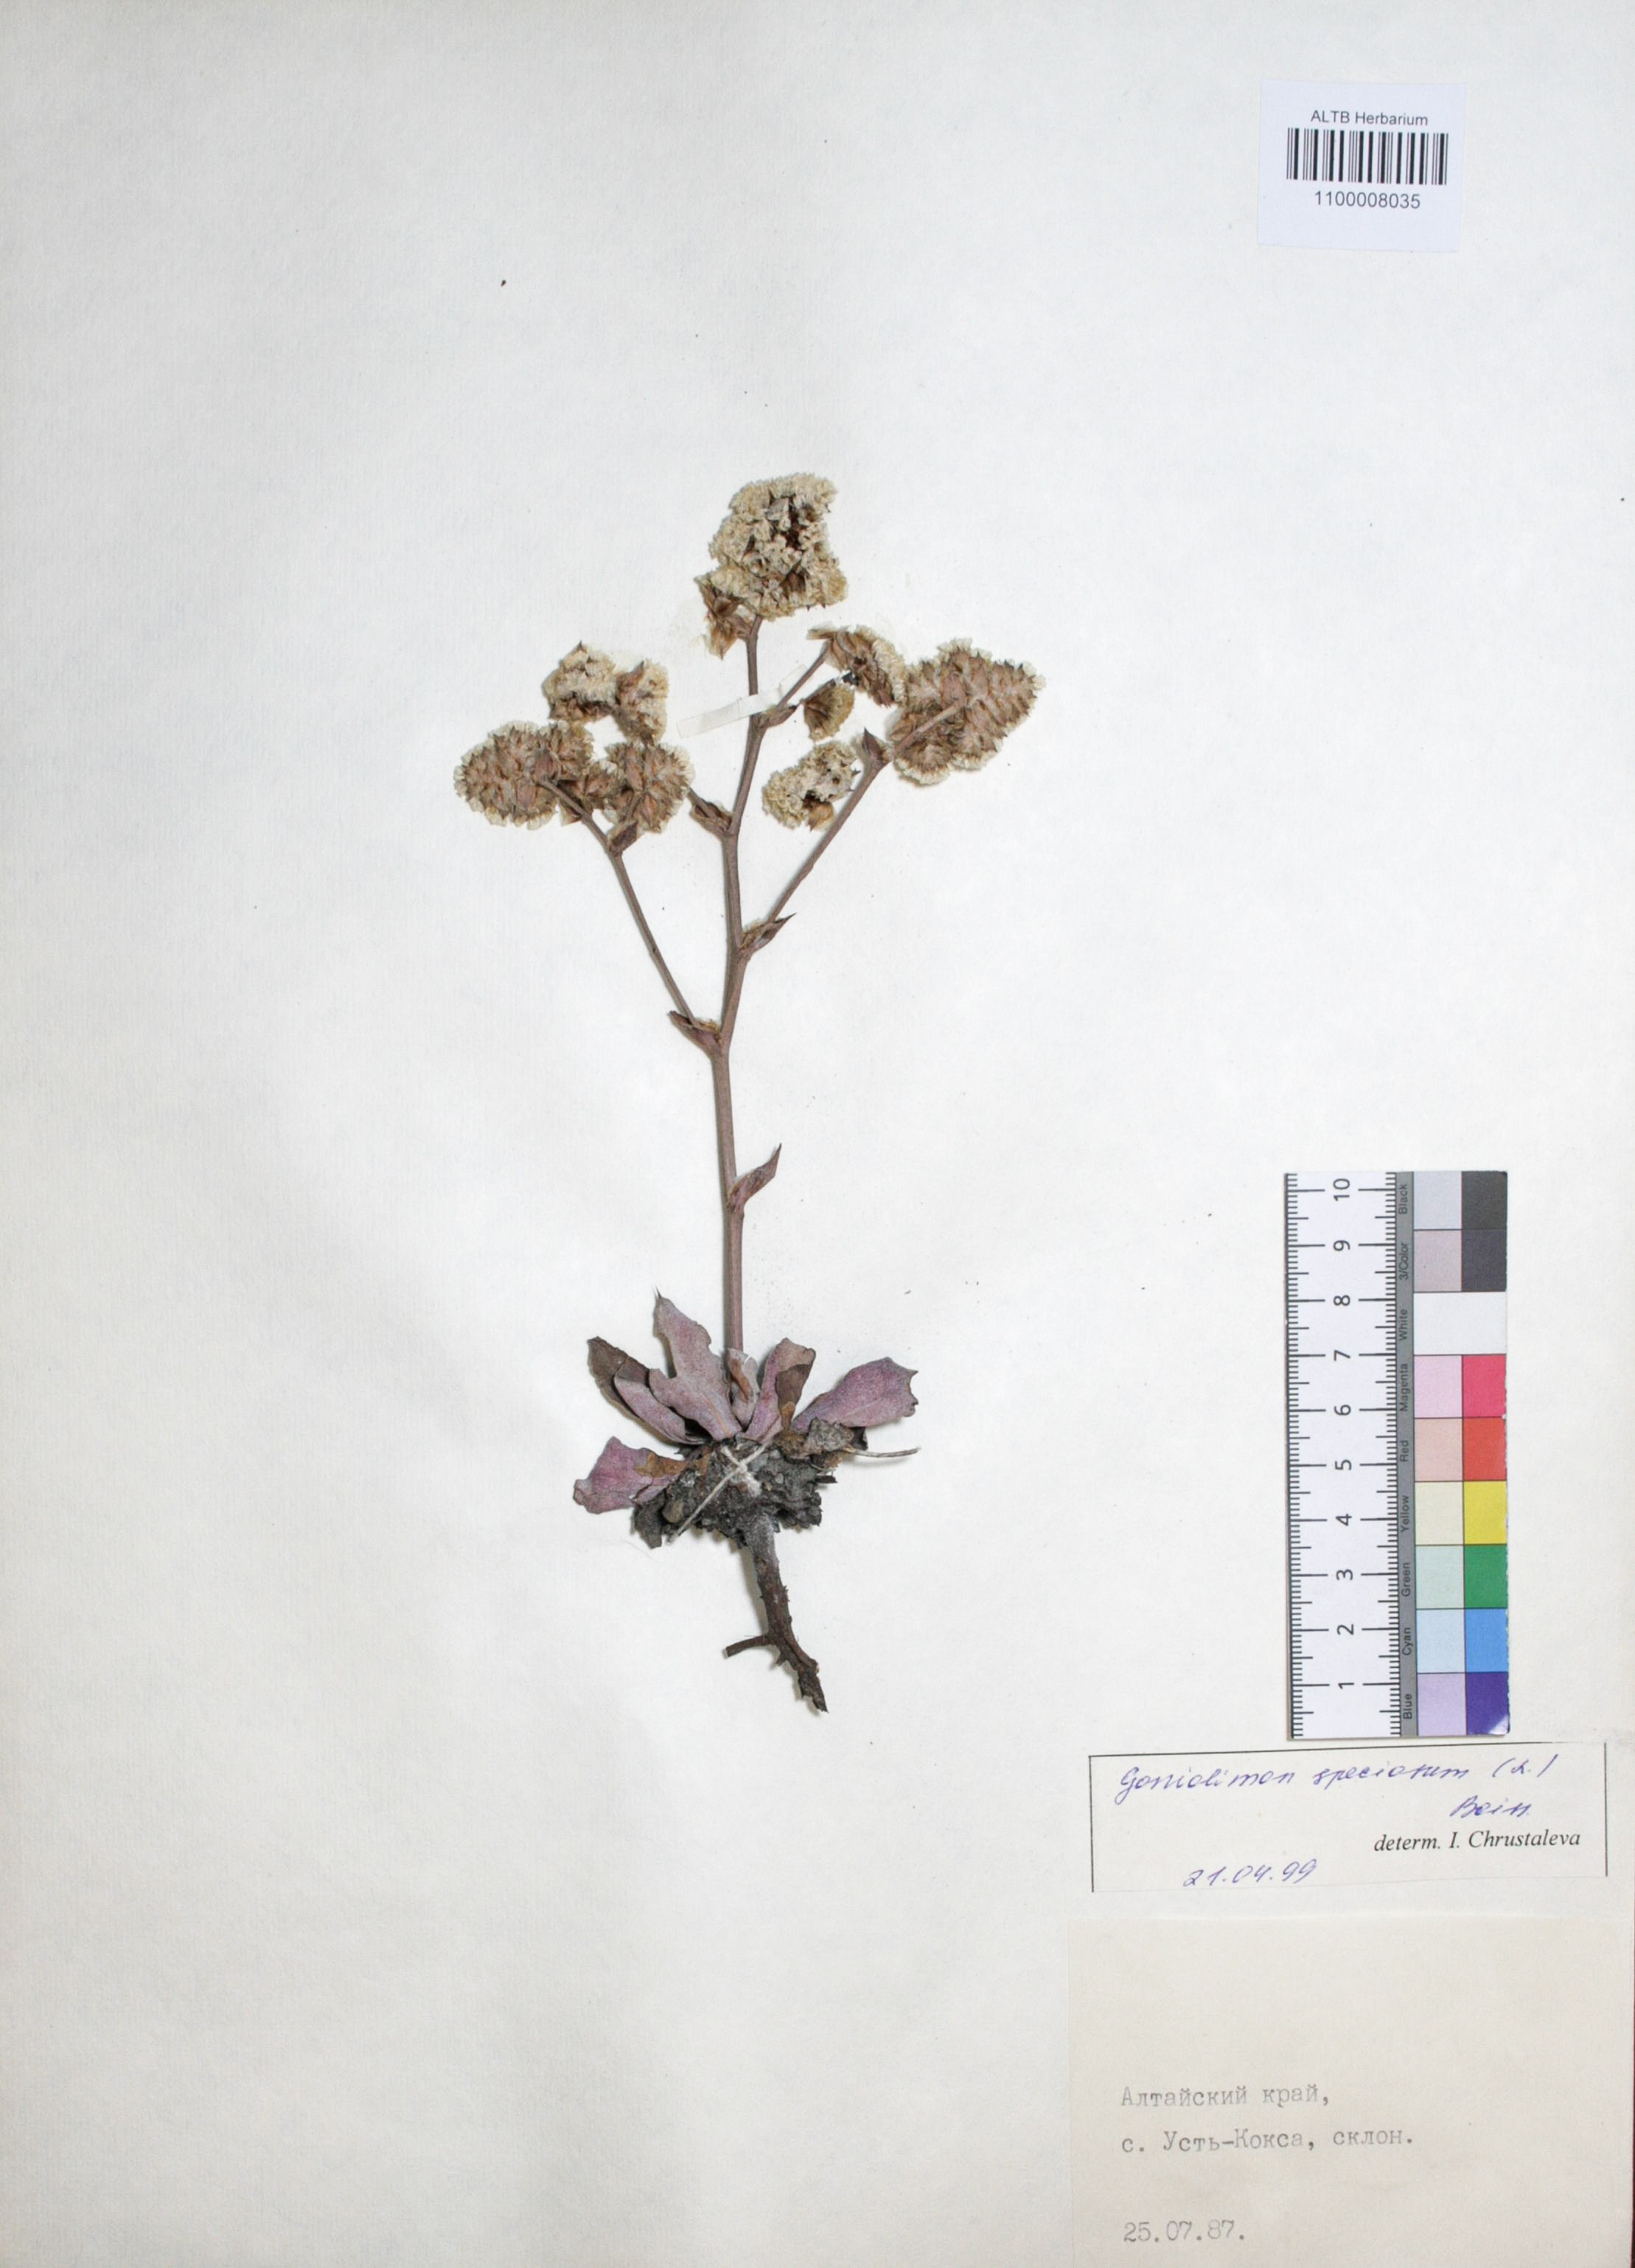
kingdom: Plantae
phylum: Tracheophyta
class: Magnoliopsida
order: Caryophyllales
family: Plumbaginaceae
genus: Goniolimon
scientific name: Goniolimon speciosum
